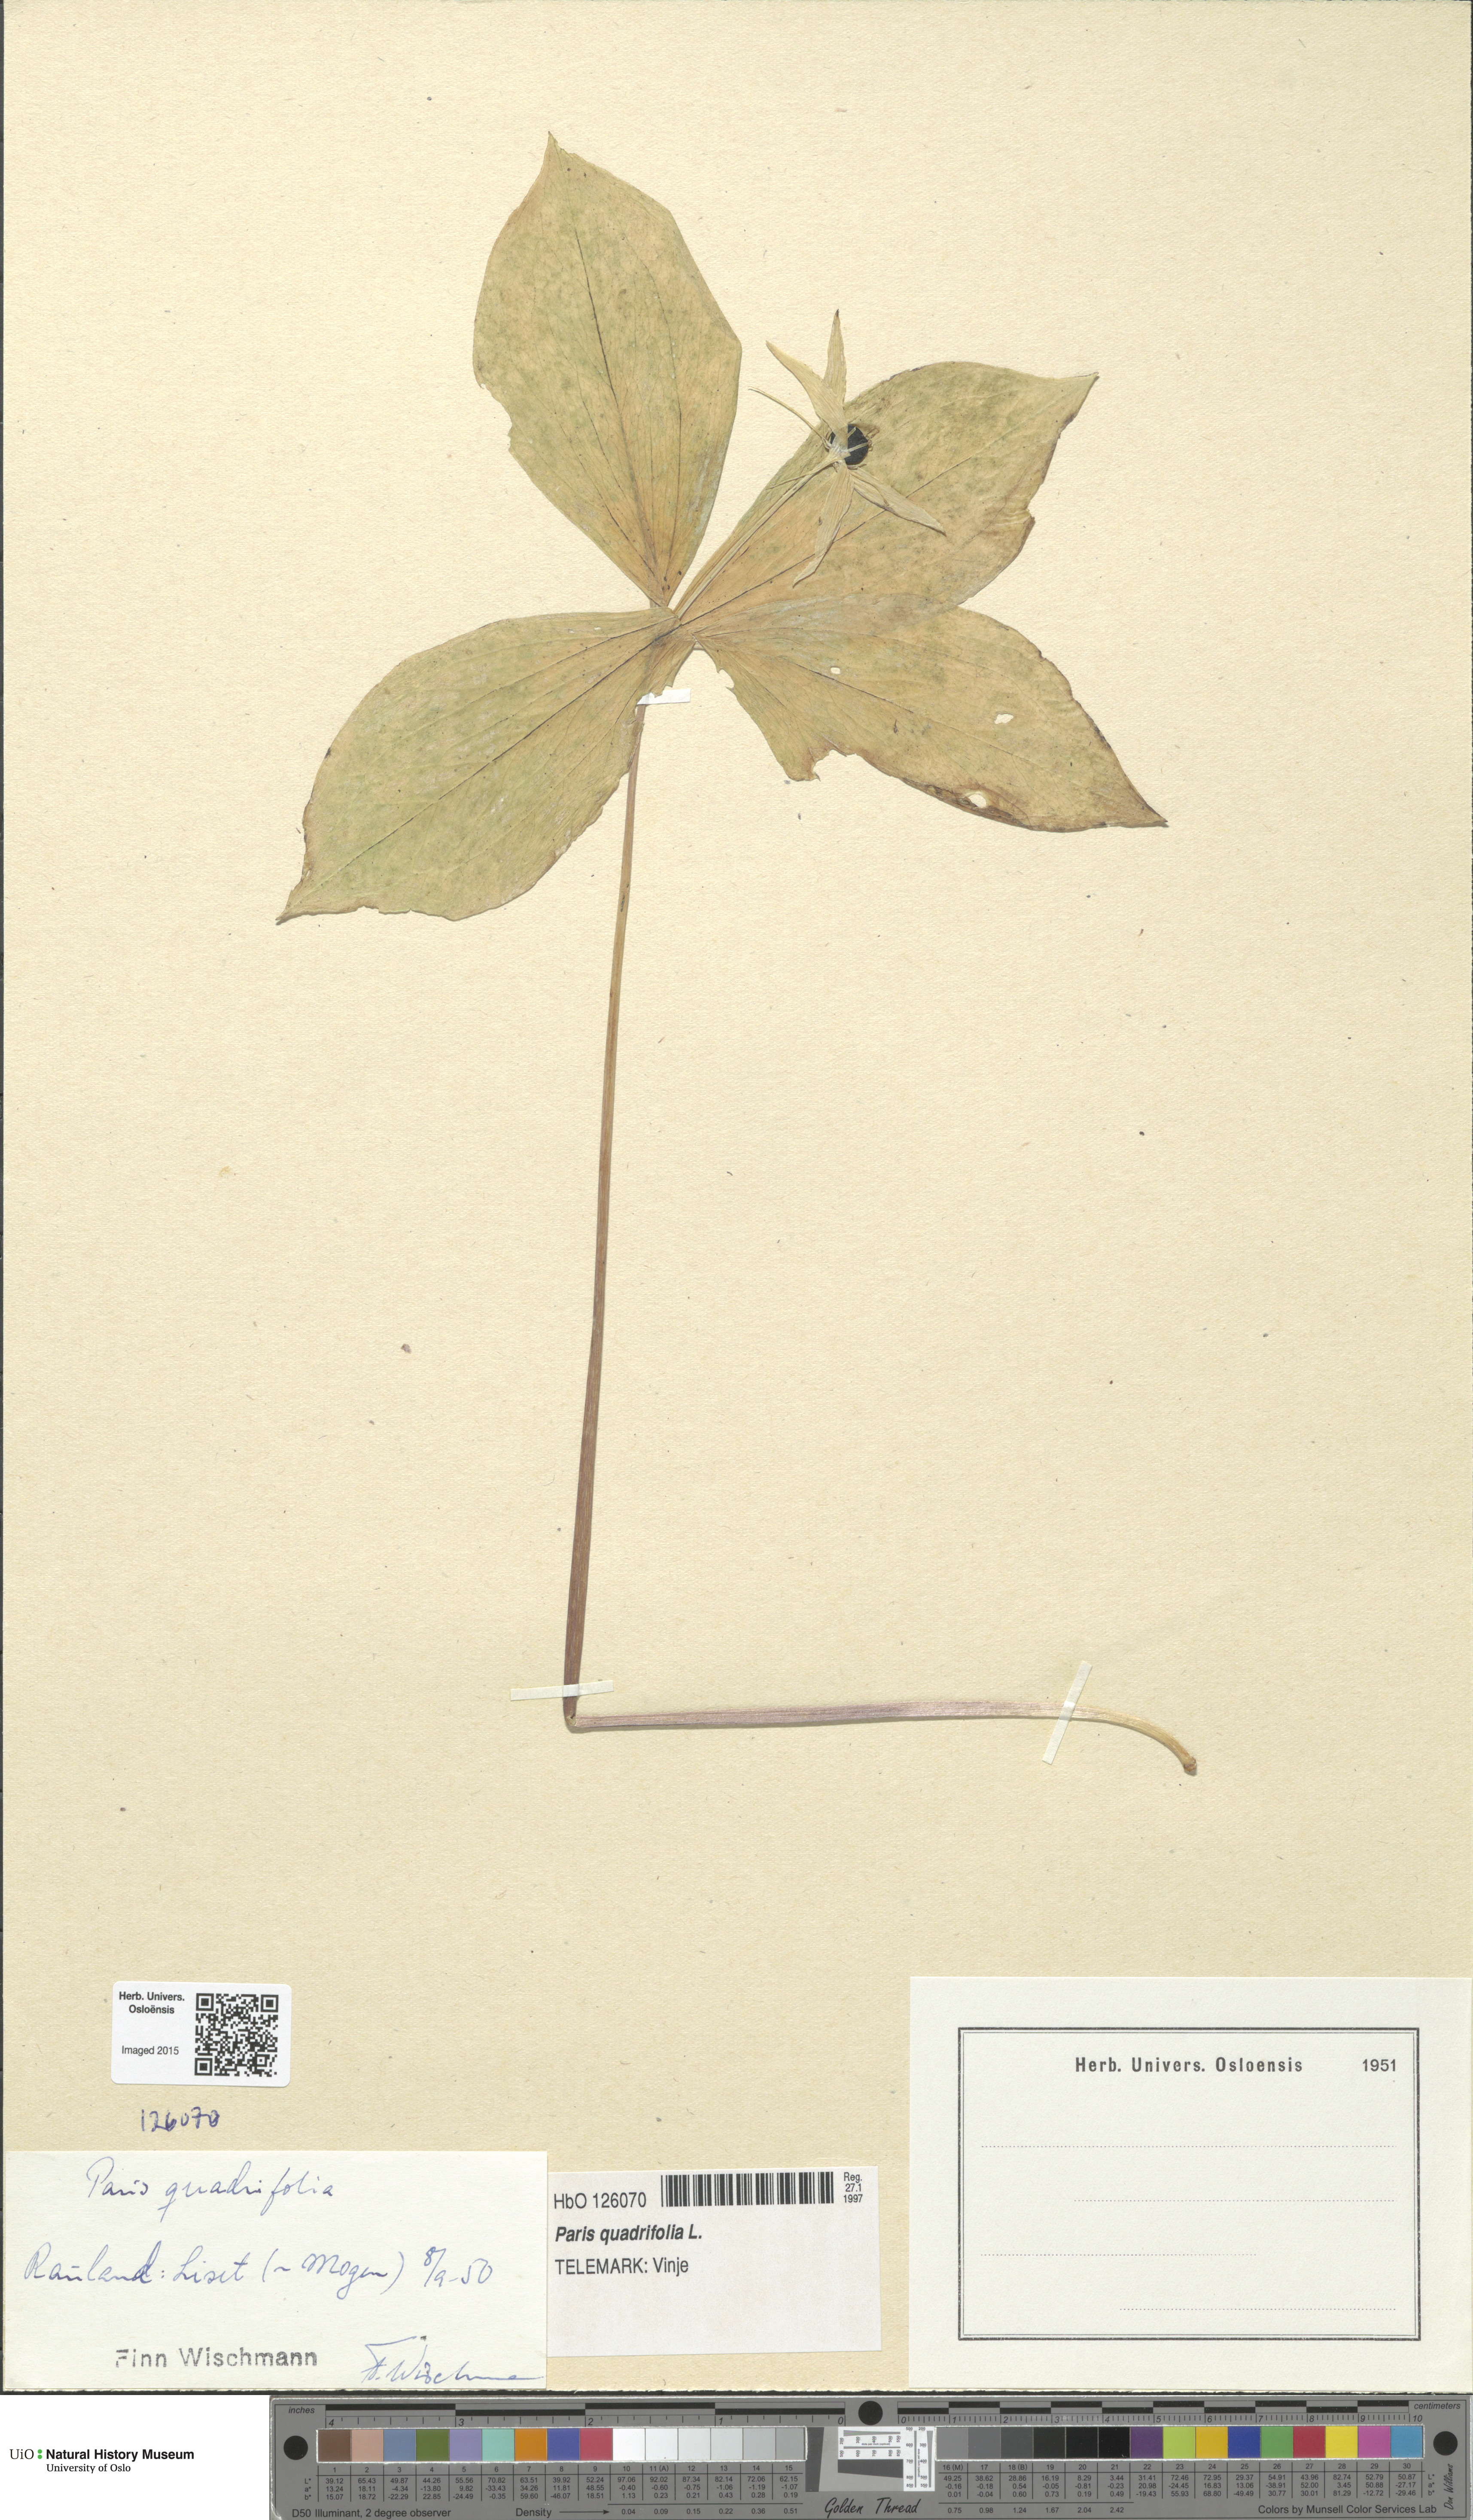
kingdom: Plantae
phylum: Tracheophyta
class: Liliopsida
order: Liliales
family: Melanthiaceae
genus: Paris
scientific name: Paris quadrifolia
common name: Herb-paris
